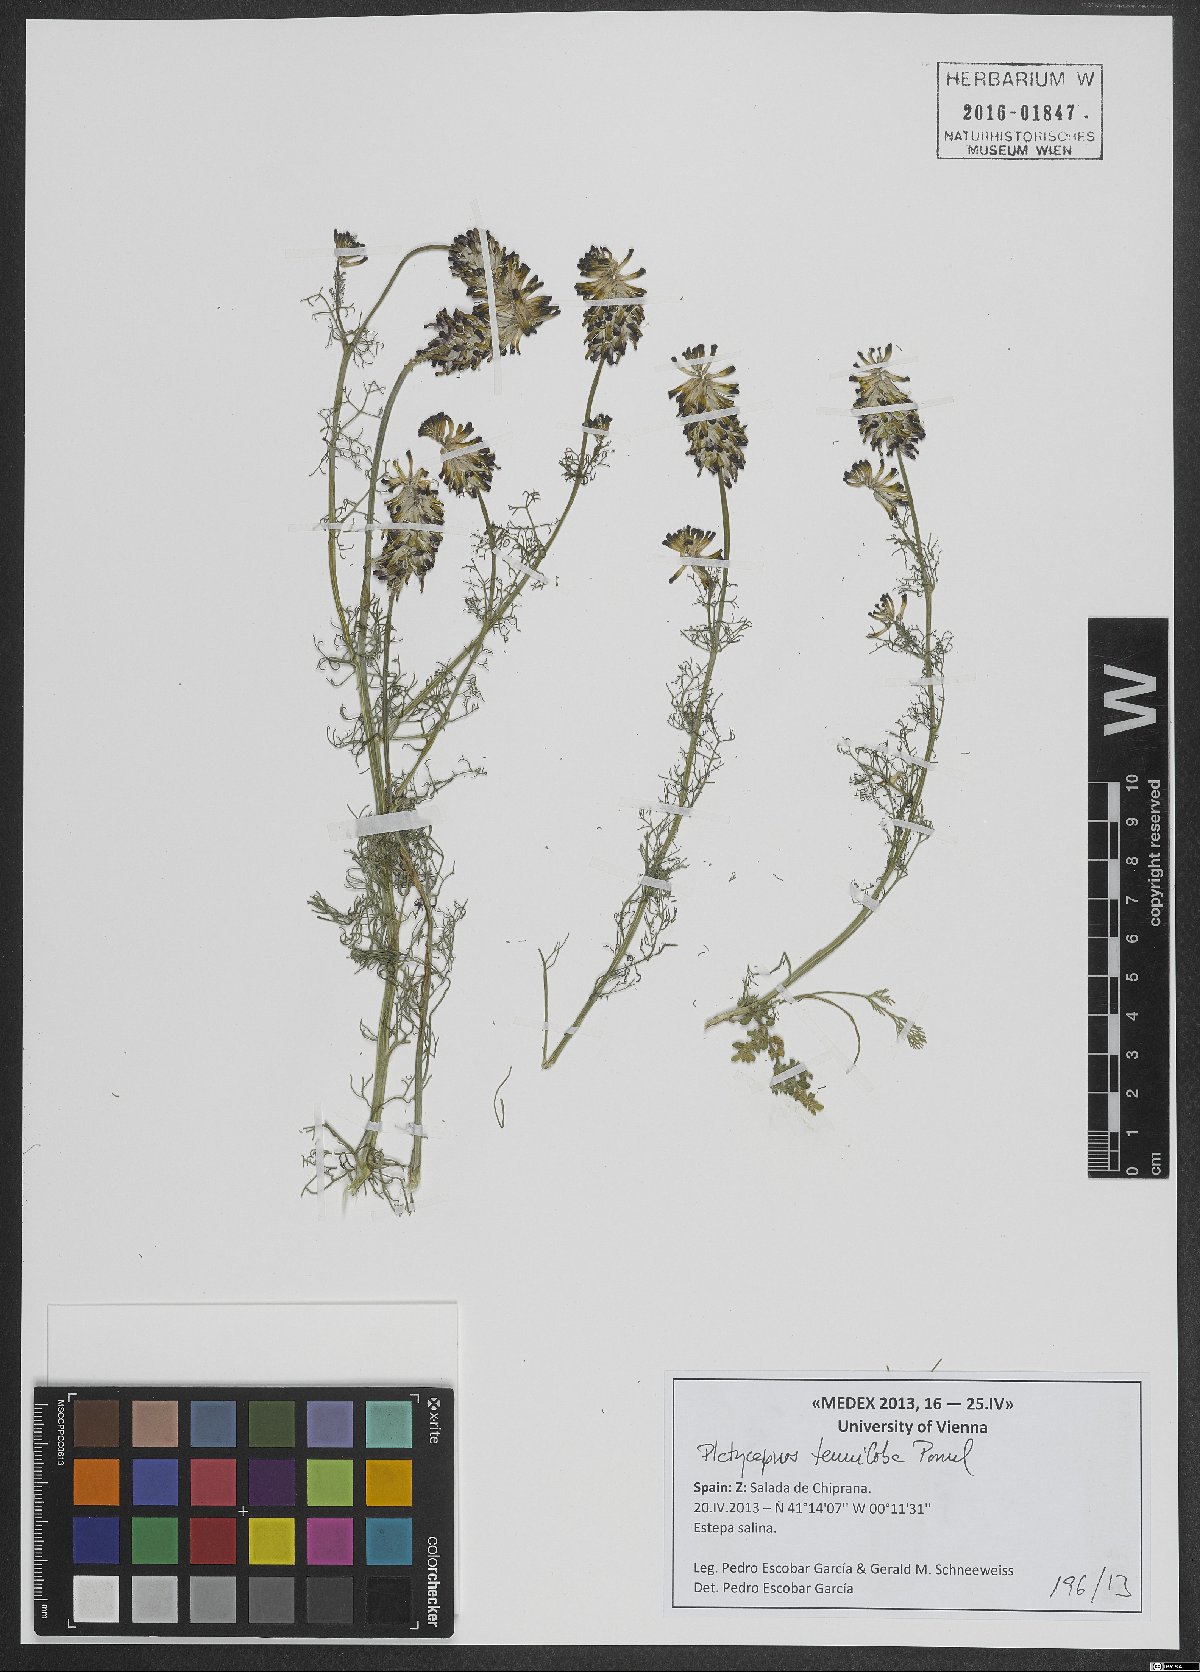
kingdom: Plantae
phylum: Tracheophyta
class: Magnoliopsida
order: Ranunculales
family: Papaveraceae
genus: Platycapnos
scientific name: Platycapnos tenuiloba
